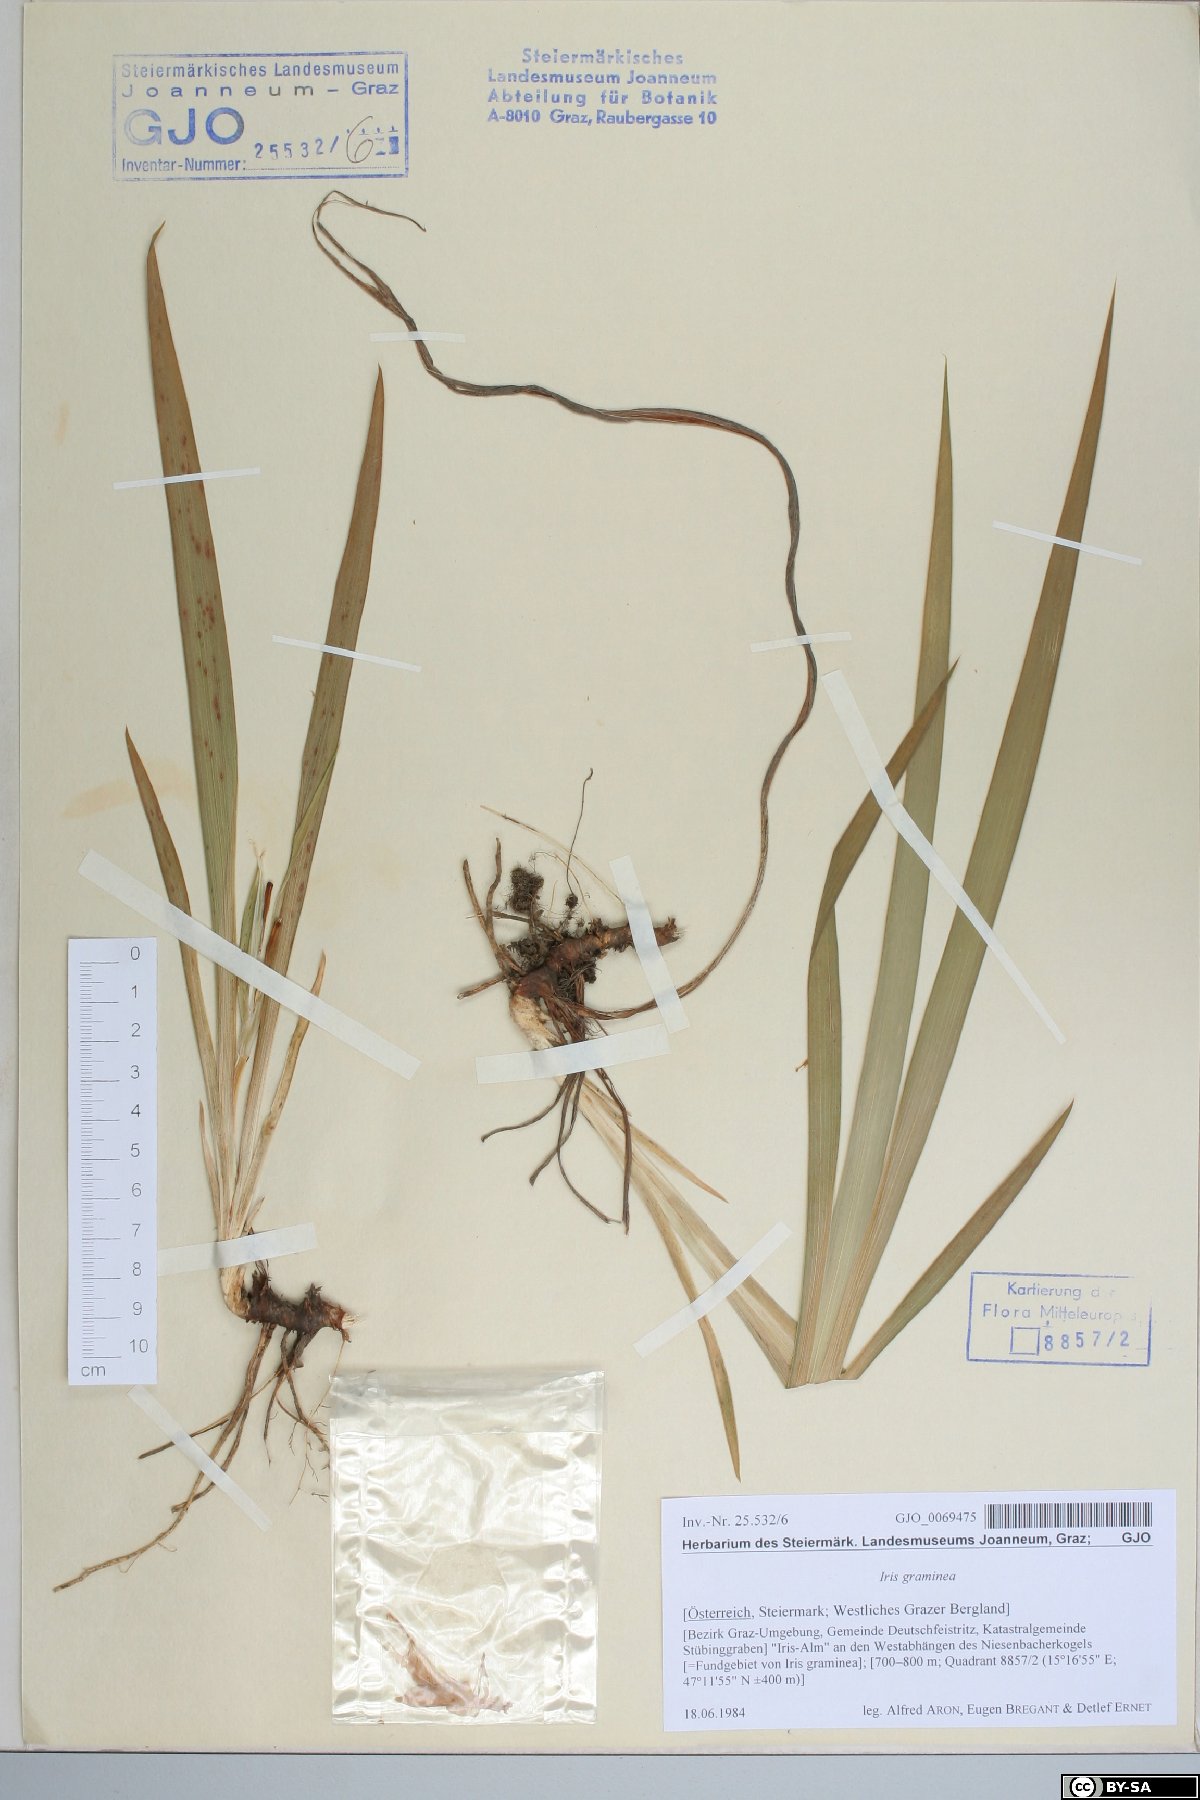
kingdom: Plantae
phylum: Tracheophyta
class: Liliopsida
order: Asparagales
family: Iridaceae
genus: Iris
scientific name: Iris graminea
